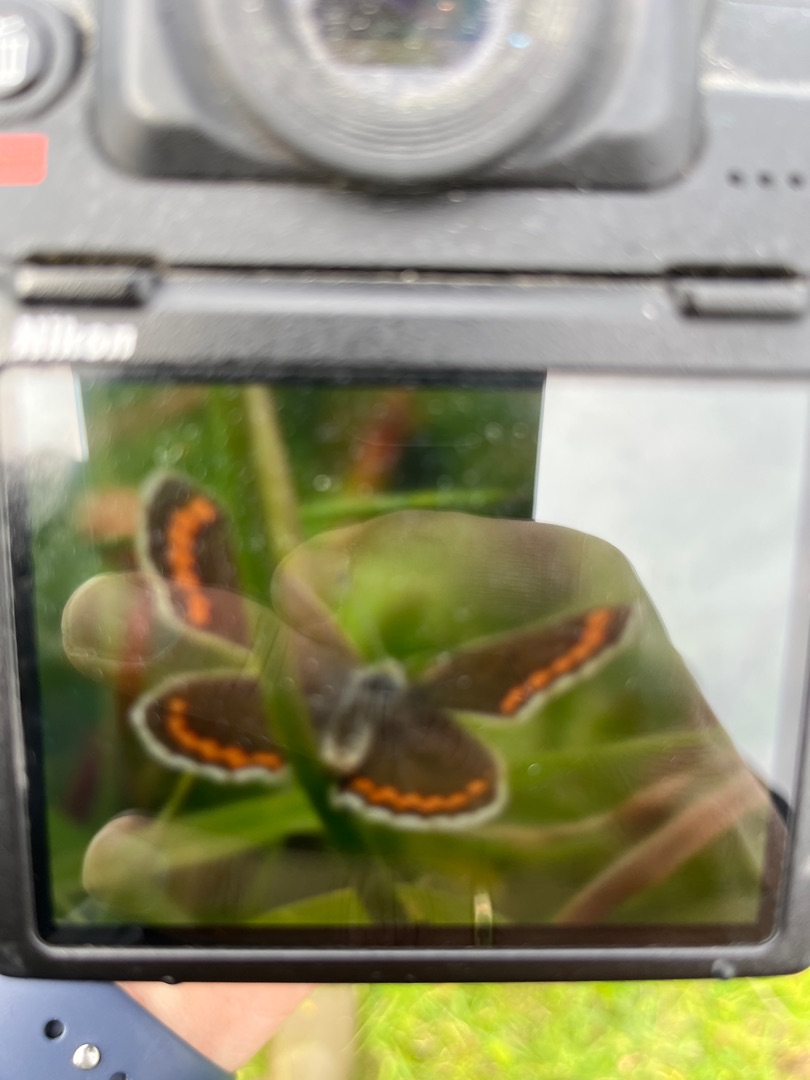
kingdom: Animalia
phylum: Arthropoda
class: Insecta
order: Lepidoptera
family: Lycaenidae
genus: Aricia
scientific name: Aricia agestis
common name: Rødplettet blåfugl
